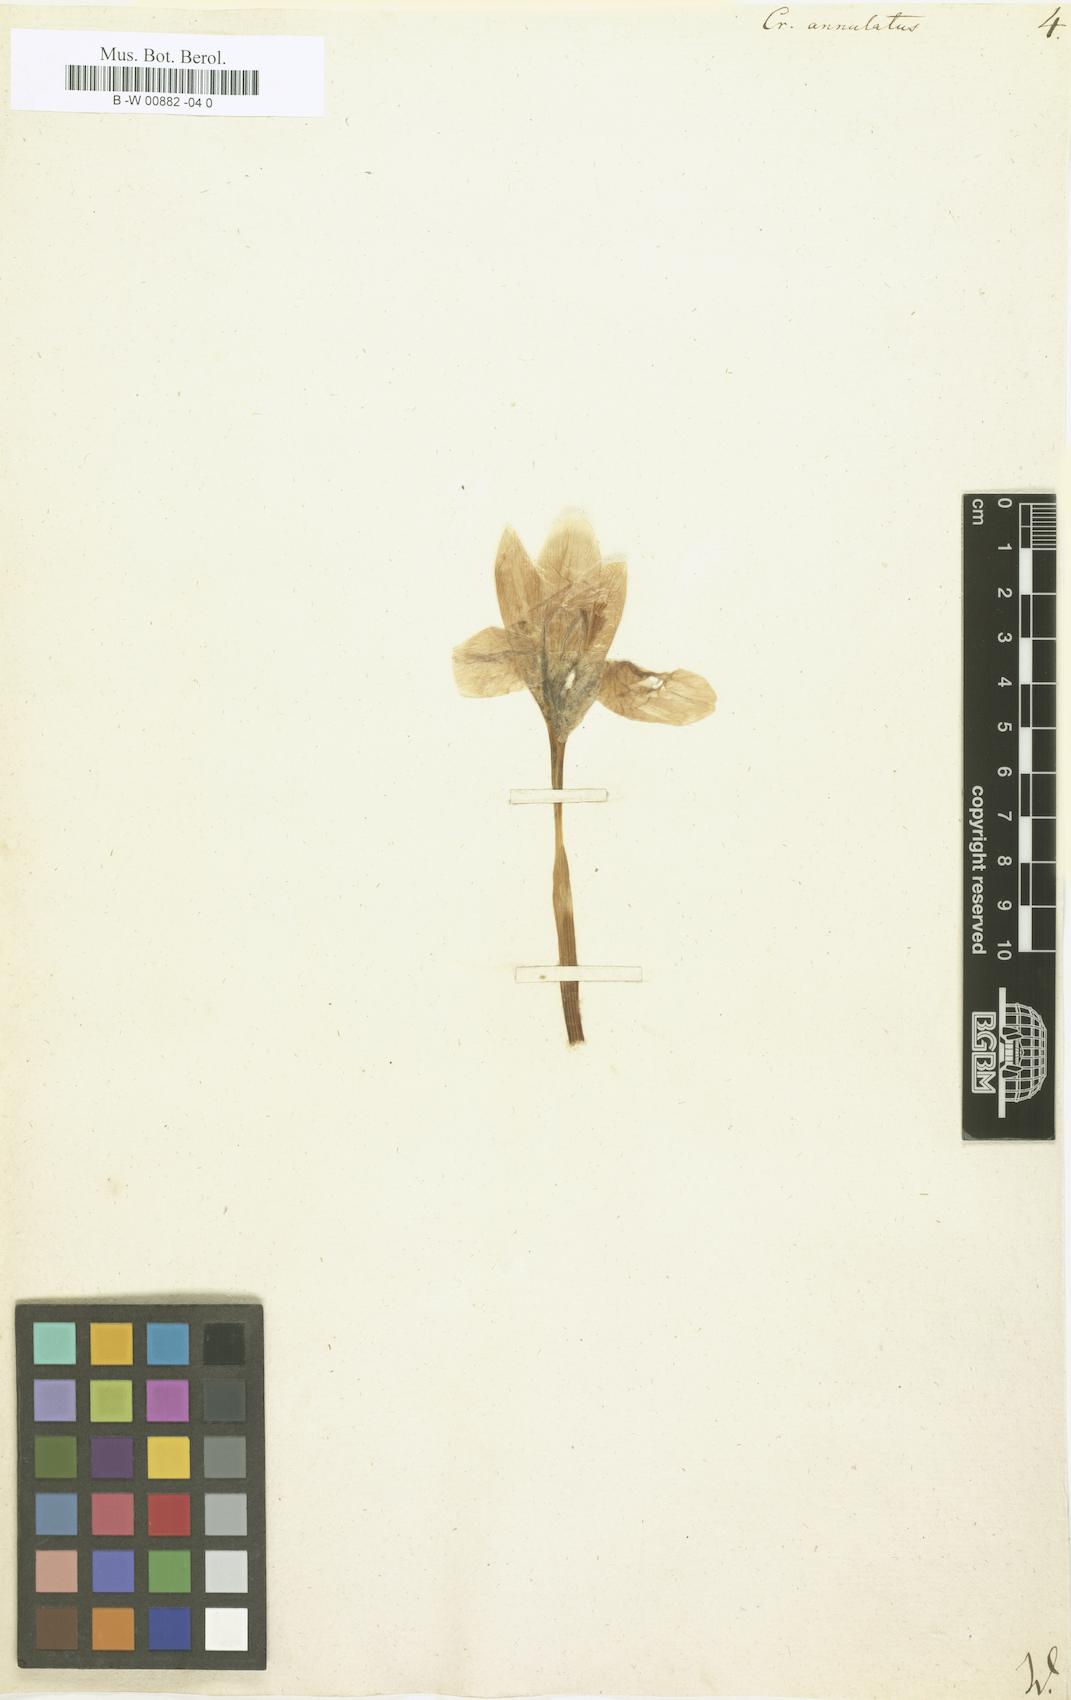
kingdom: Plantae
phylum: Tracheophyta
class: Liliopsida
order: Asparagales
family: Iridaceae
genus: Crocus
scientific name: Crocus annulatus
